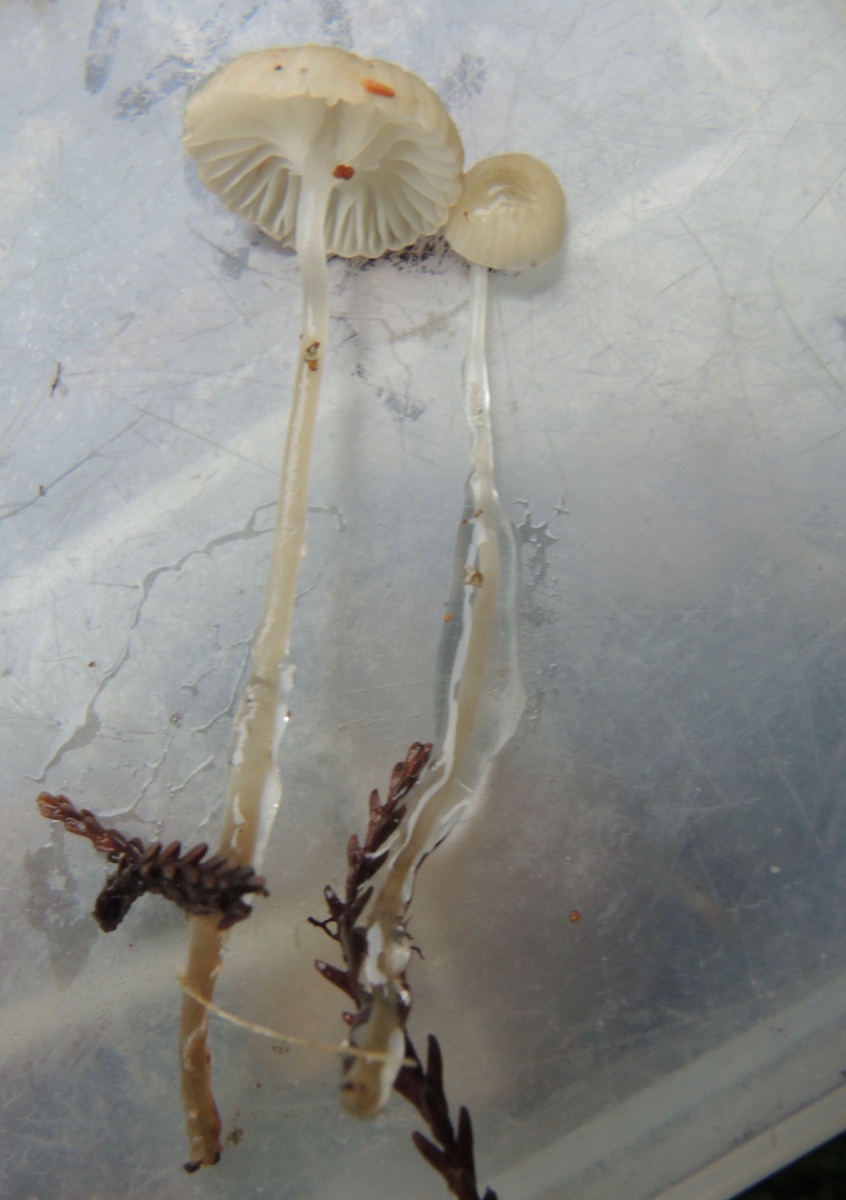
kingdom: Fungi
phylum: Basidiomycota
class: Agaricomycetes
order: Agaricales
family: Mycenaceae
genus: Roridomyces
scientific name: Roridomyces roridus
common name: slimfod
